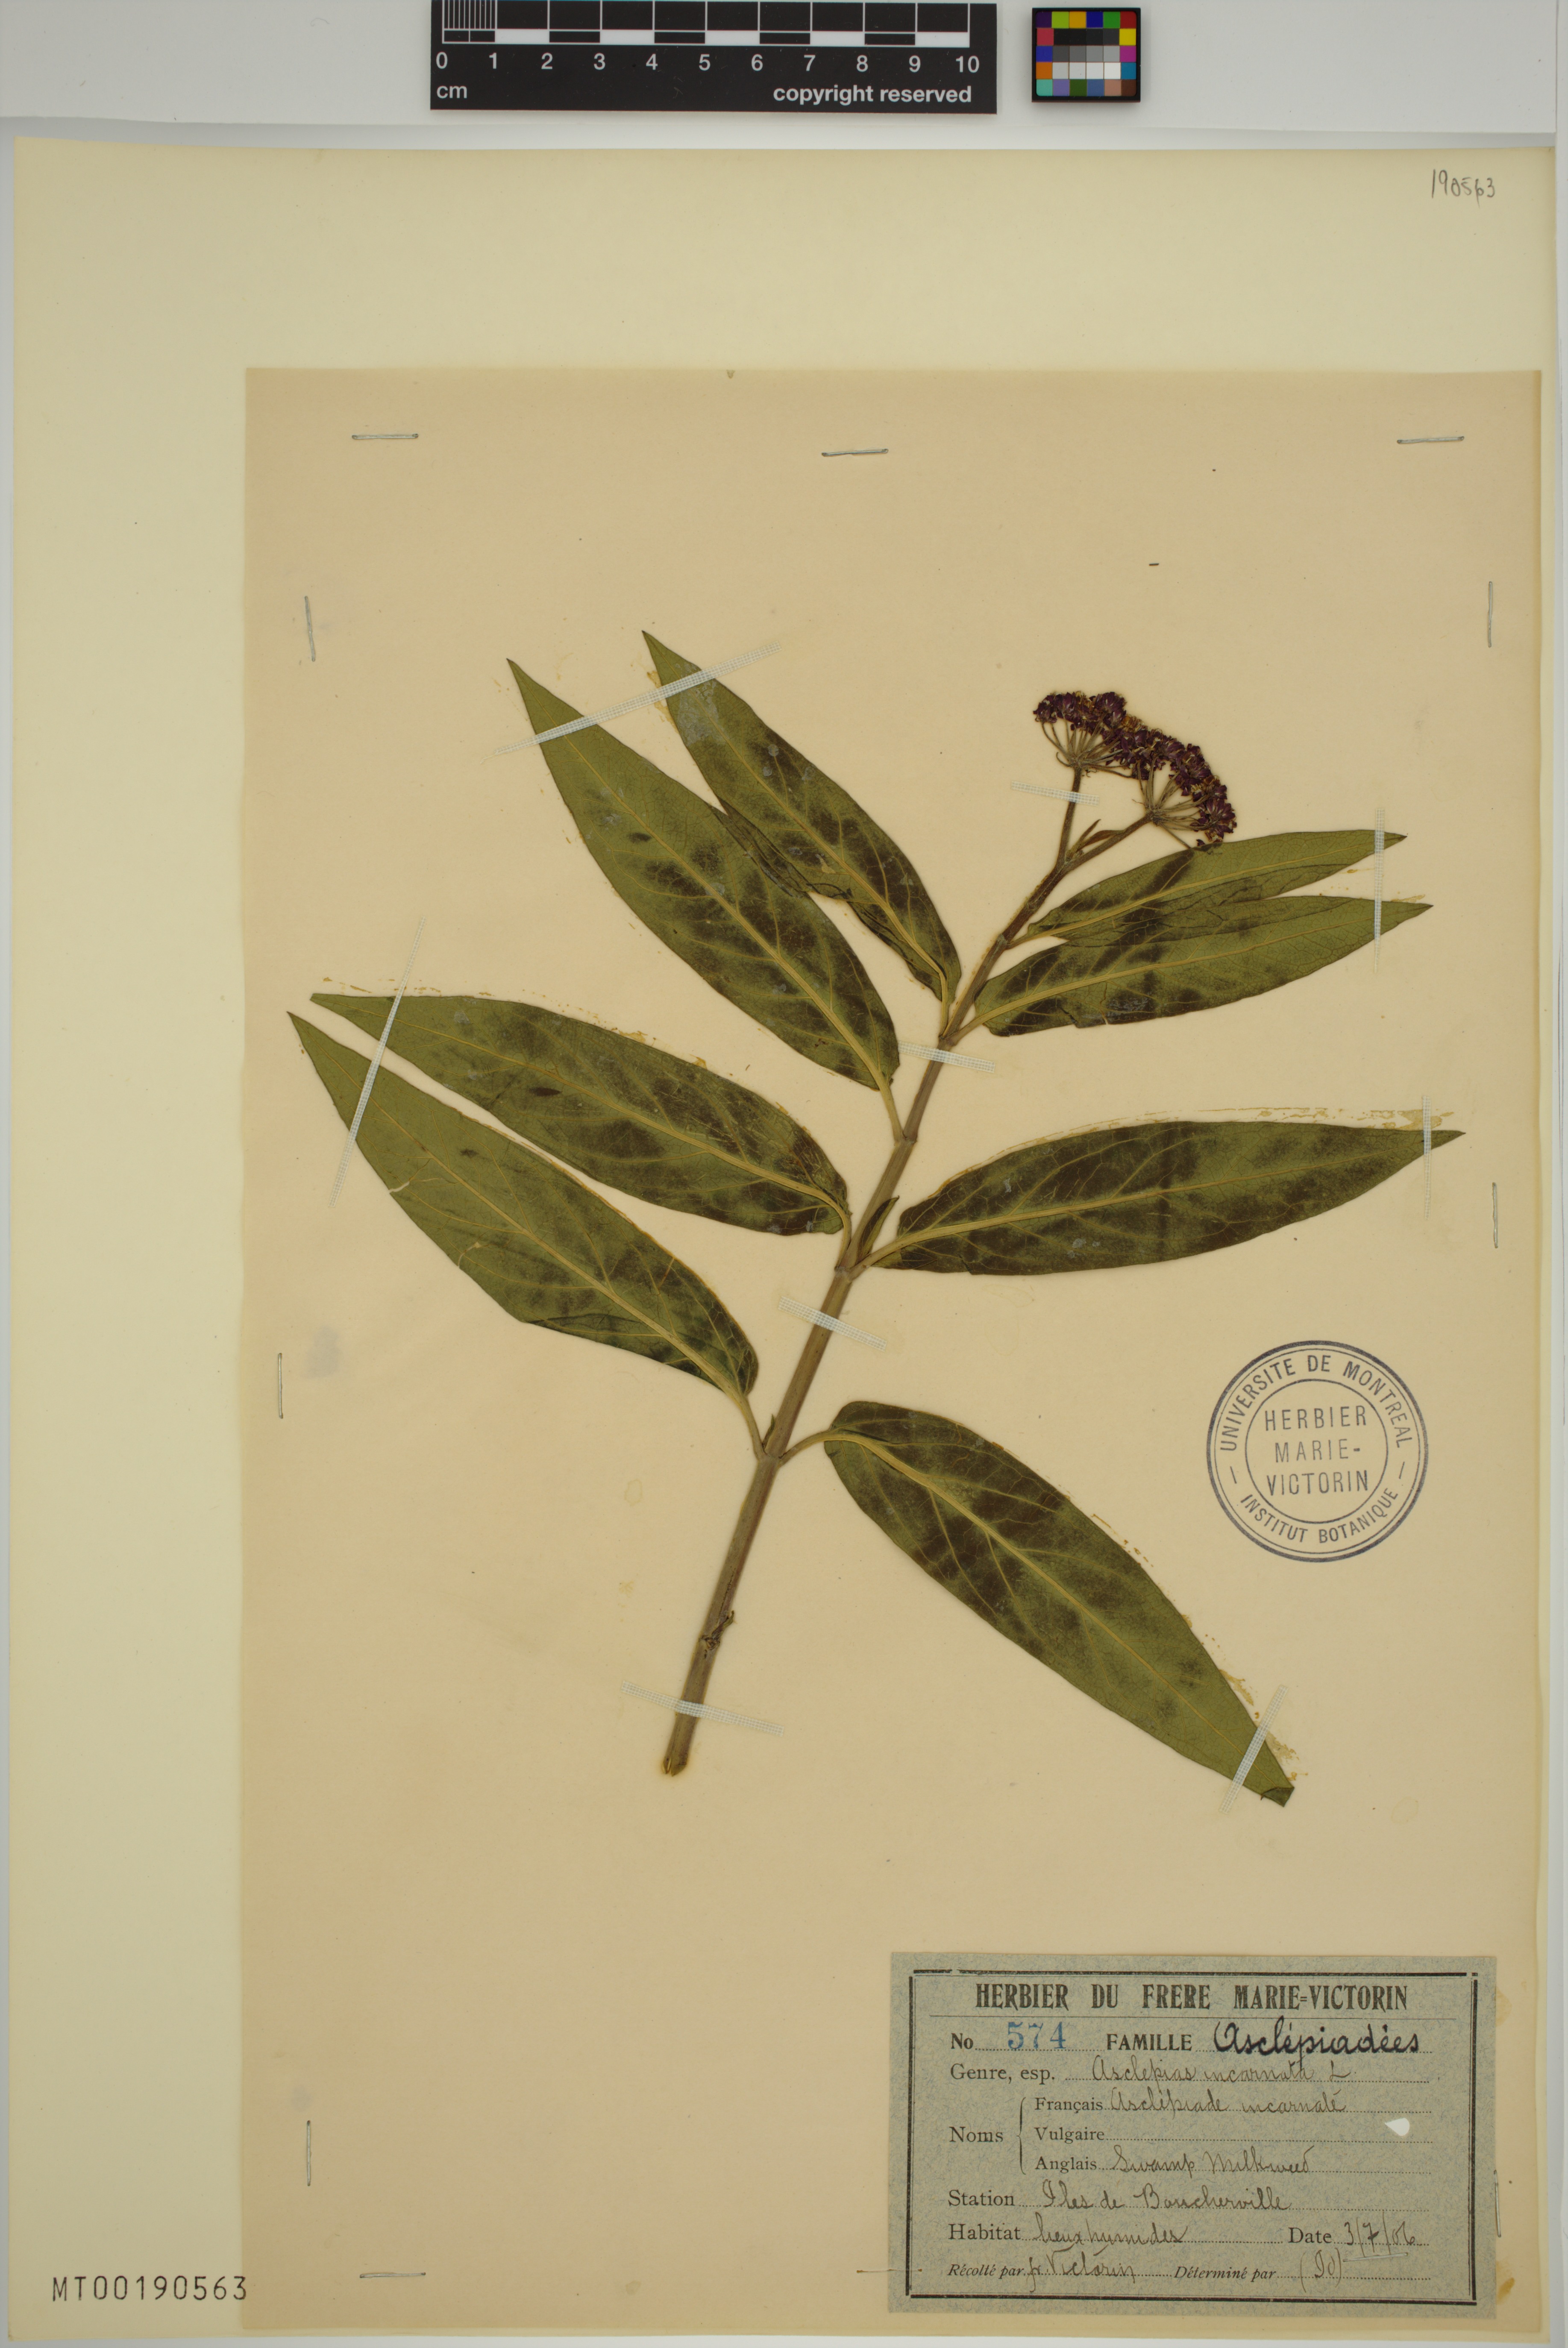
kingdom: Plantae
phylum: Tracheophyta
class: Magnoliopsida
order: Gentianales
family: Apocynaceae
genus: Asclepias
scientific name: Asclepias incarnata
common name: Swamp milkweed
